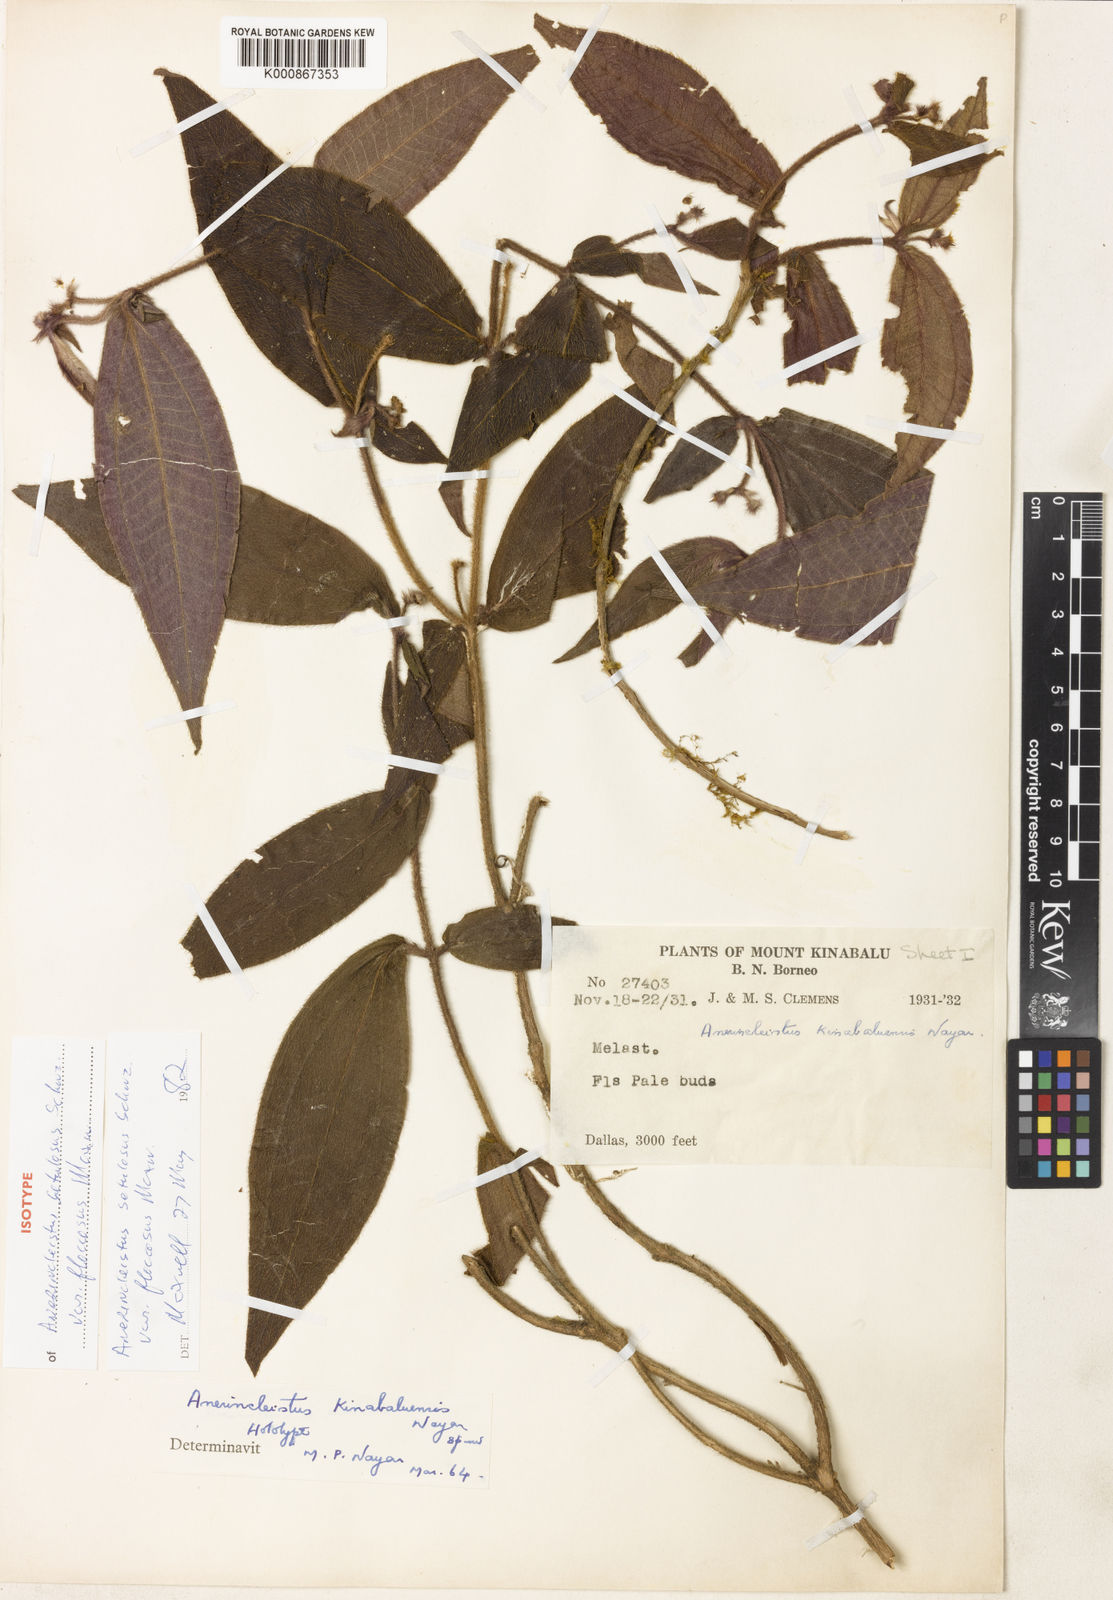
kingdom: Plantae
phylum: Tracheophyta
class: Magnoliopsida
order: Myrtales
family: Melastomataceae
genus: Anerincleistus
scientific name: Anerincleistus
